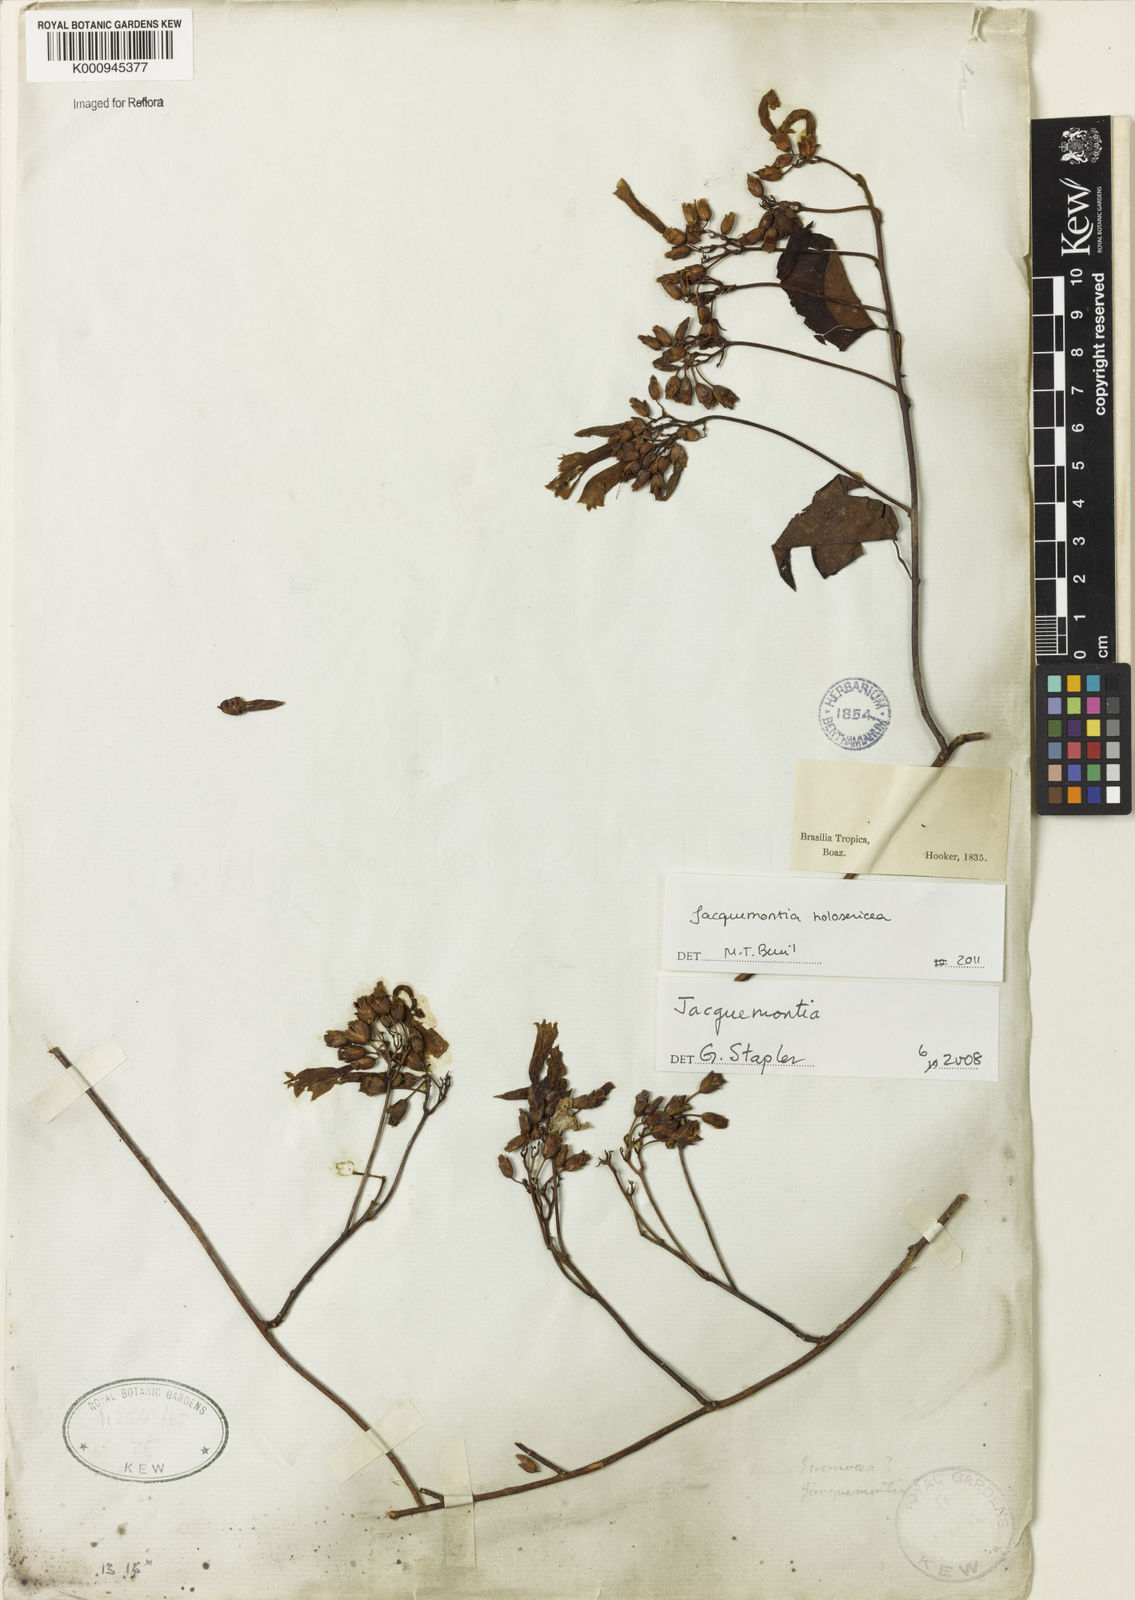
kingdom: Plantae
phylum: Tracheophyta
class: Magnoliopsida
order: Solanales
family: Convolvulaceae
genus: Jacquemontia
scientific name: Jacquemontia holosericea
